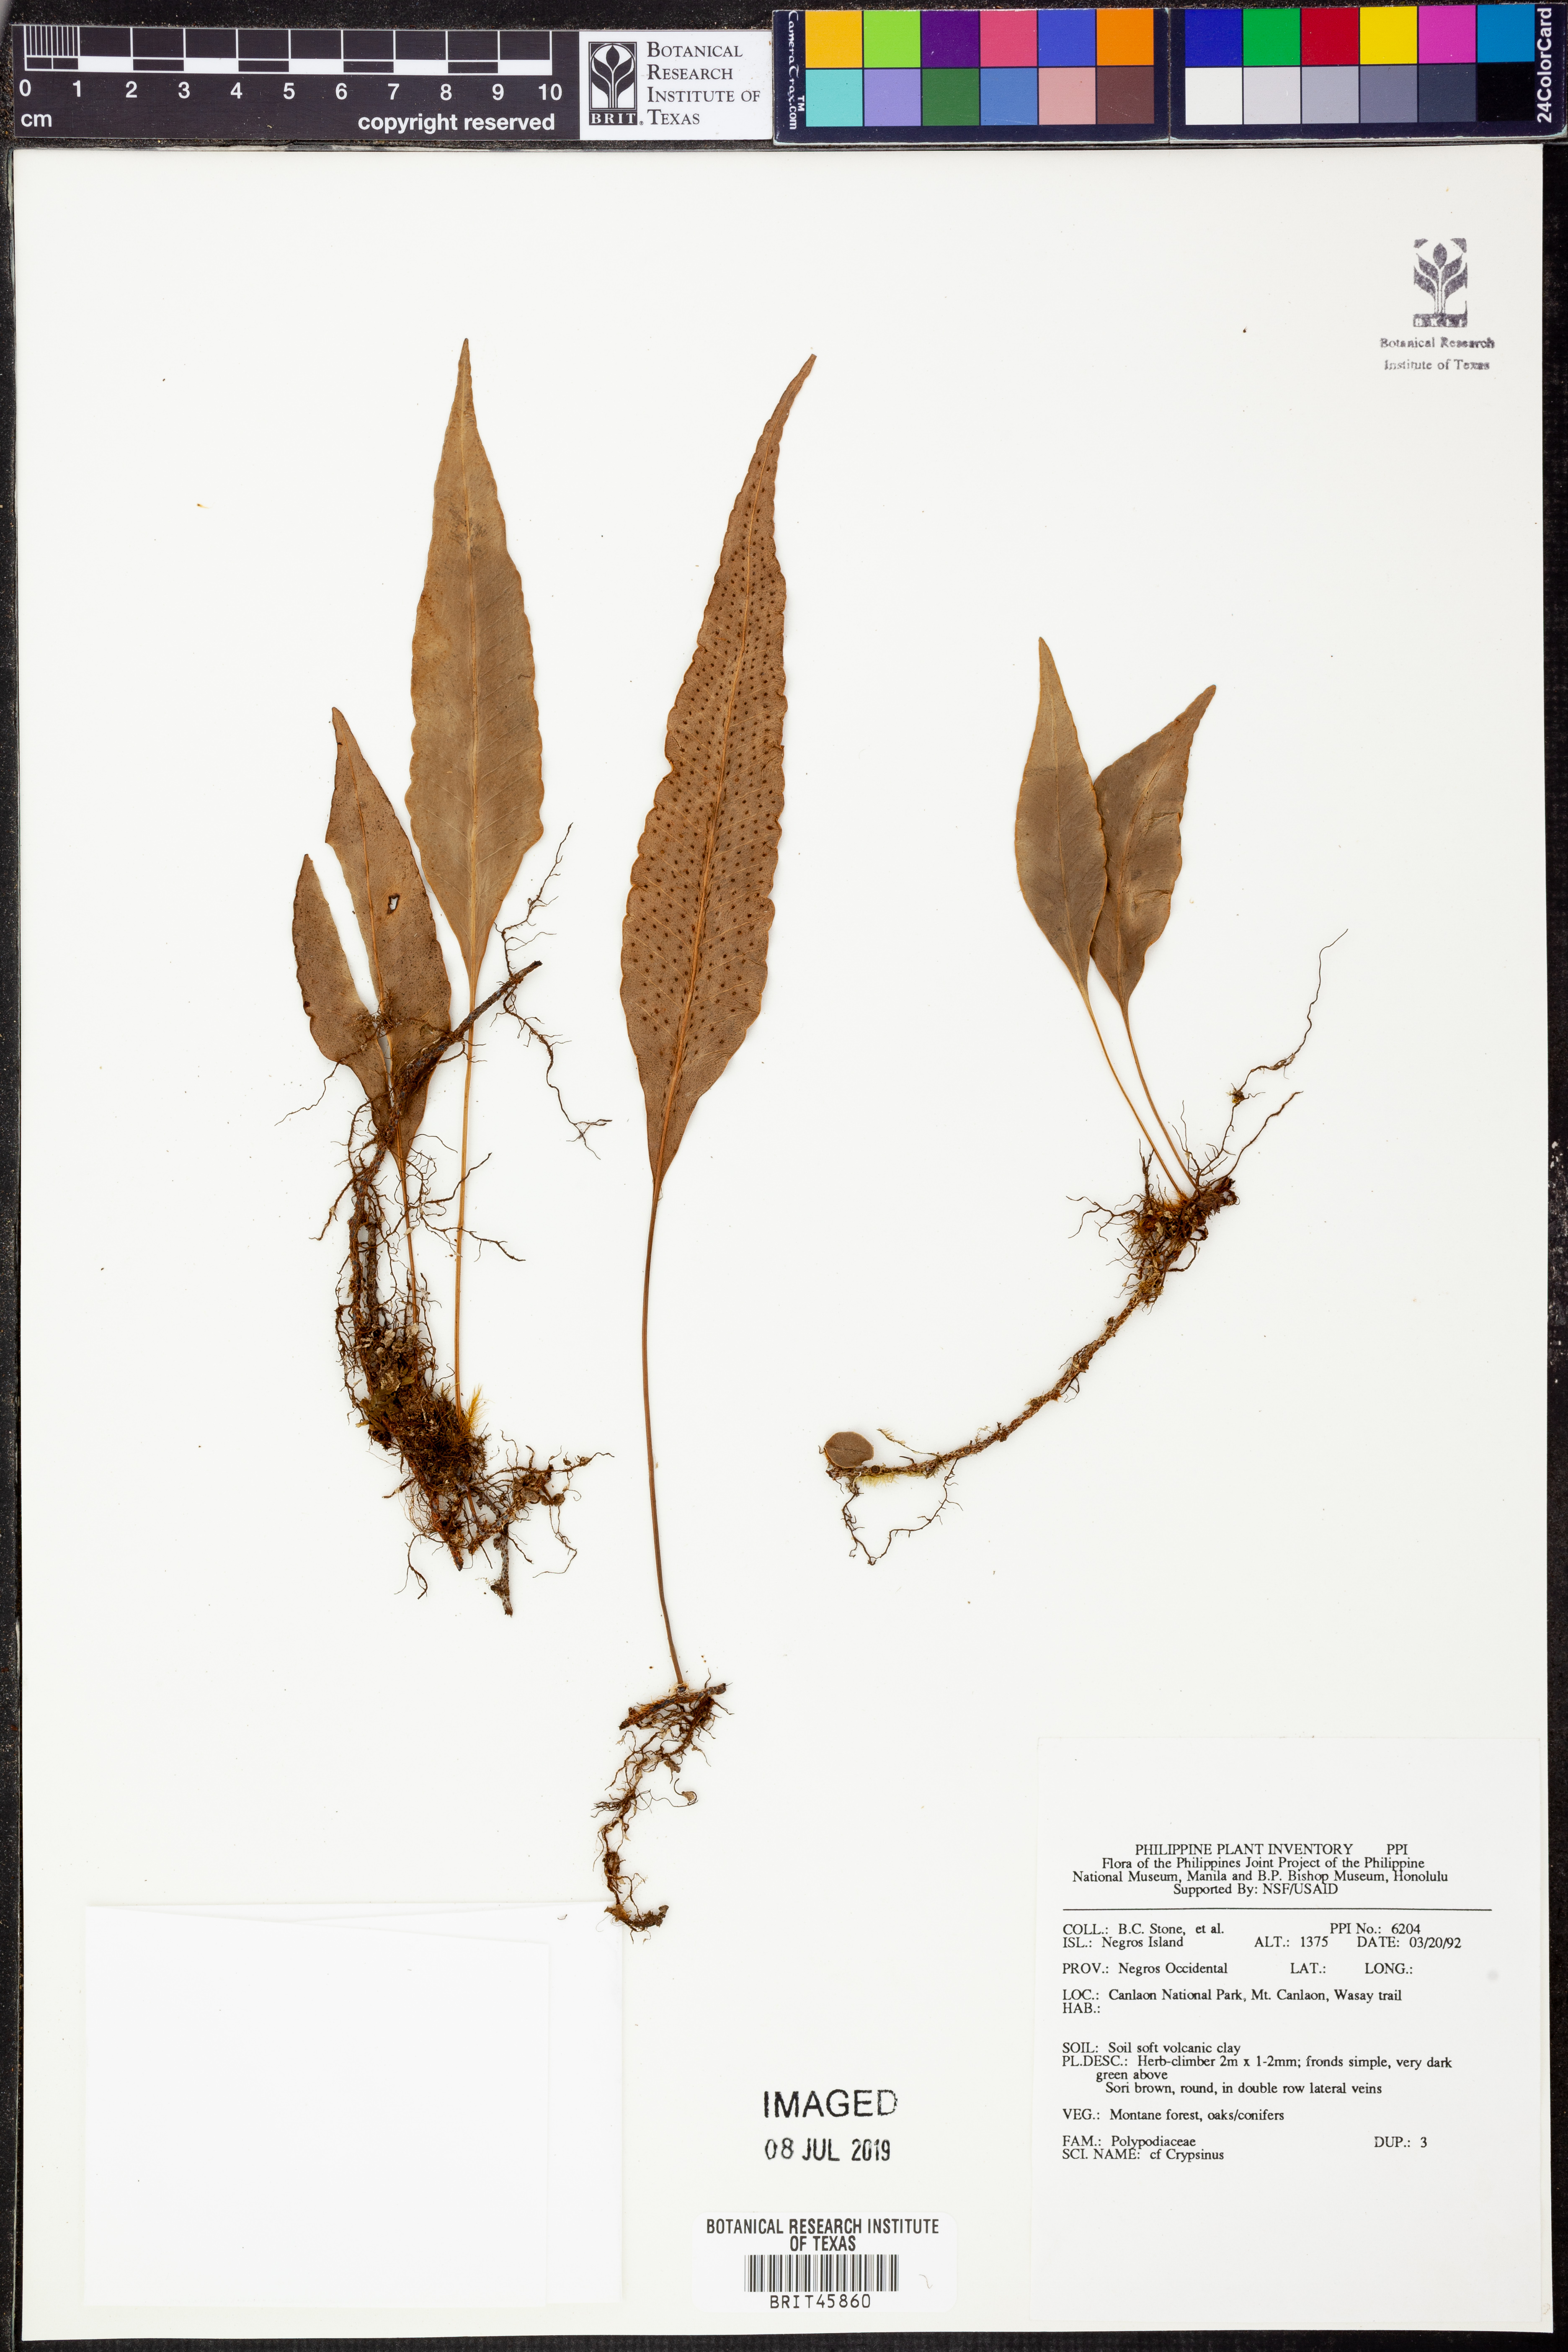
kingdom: Animalia
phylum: Arthropoda
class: Insecta
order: Hemiptera
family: Pentatomidae
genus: Crypsinus
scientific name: Crypsinus
